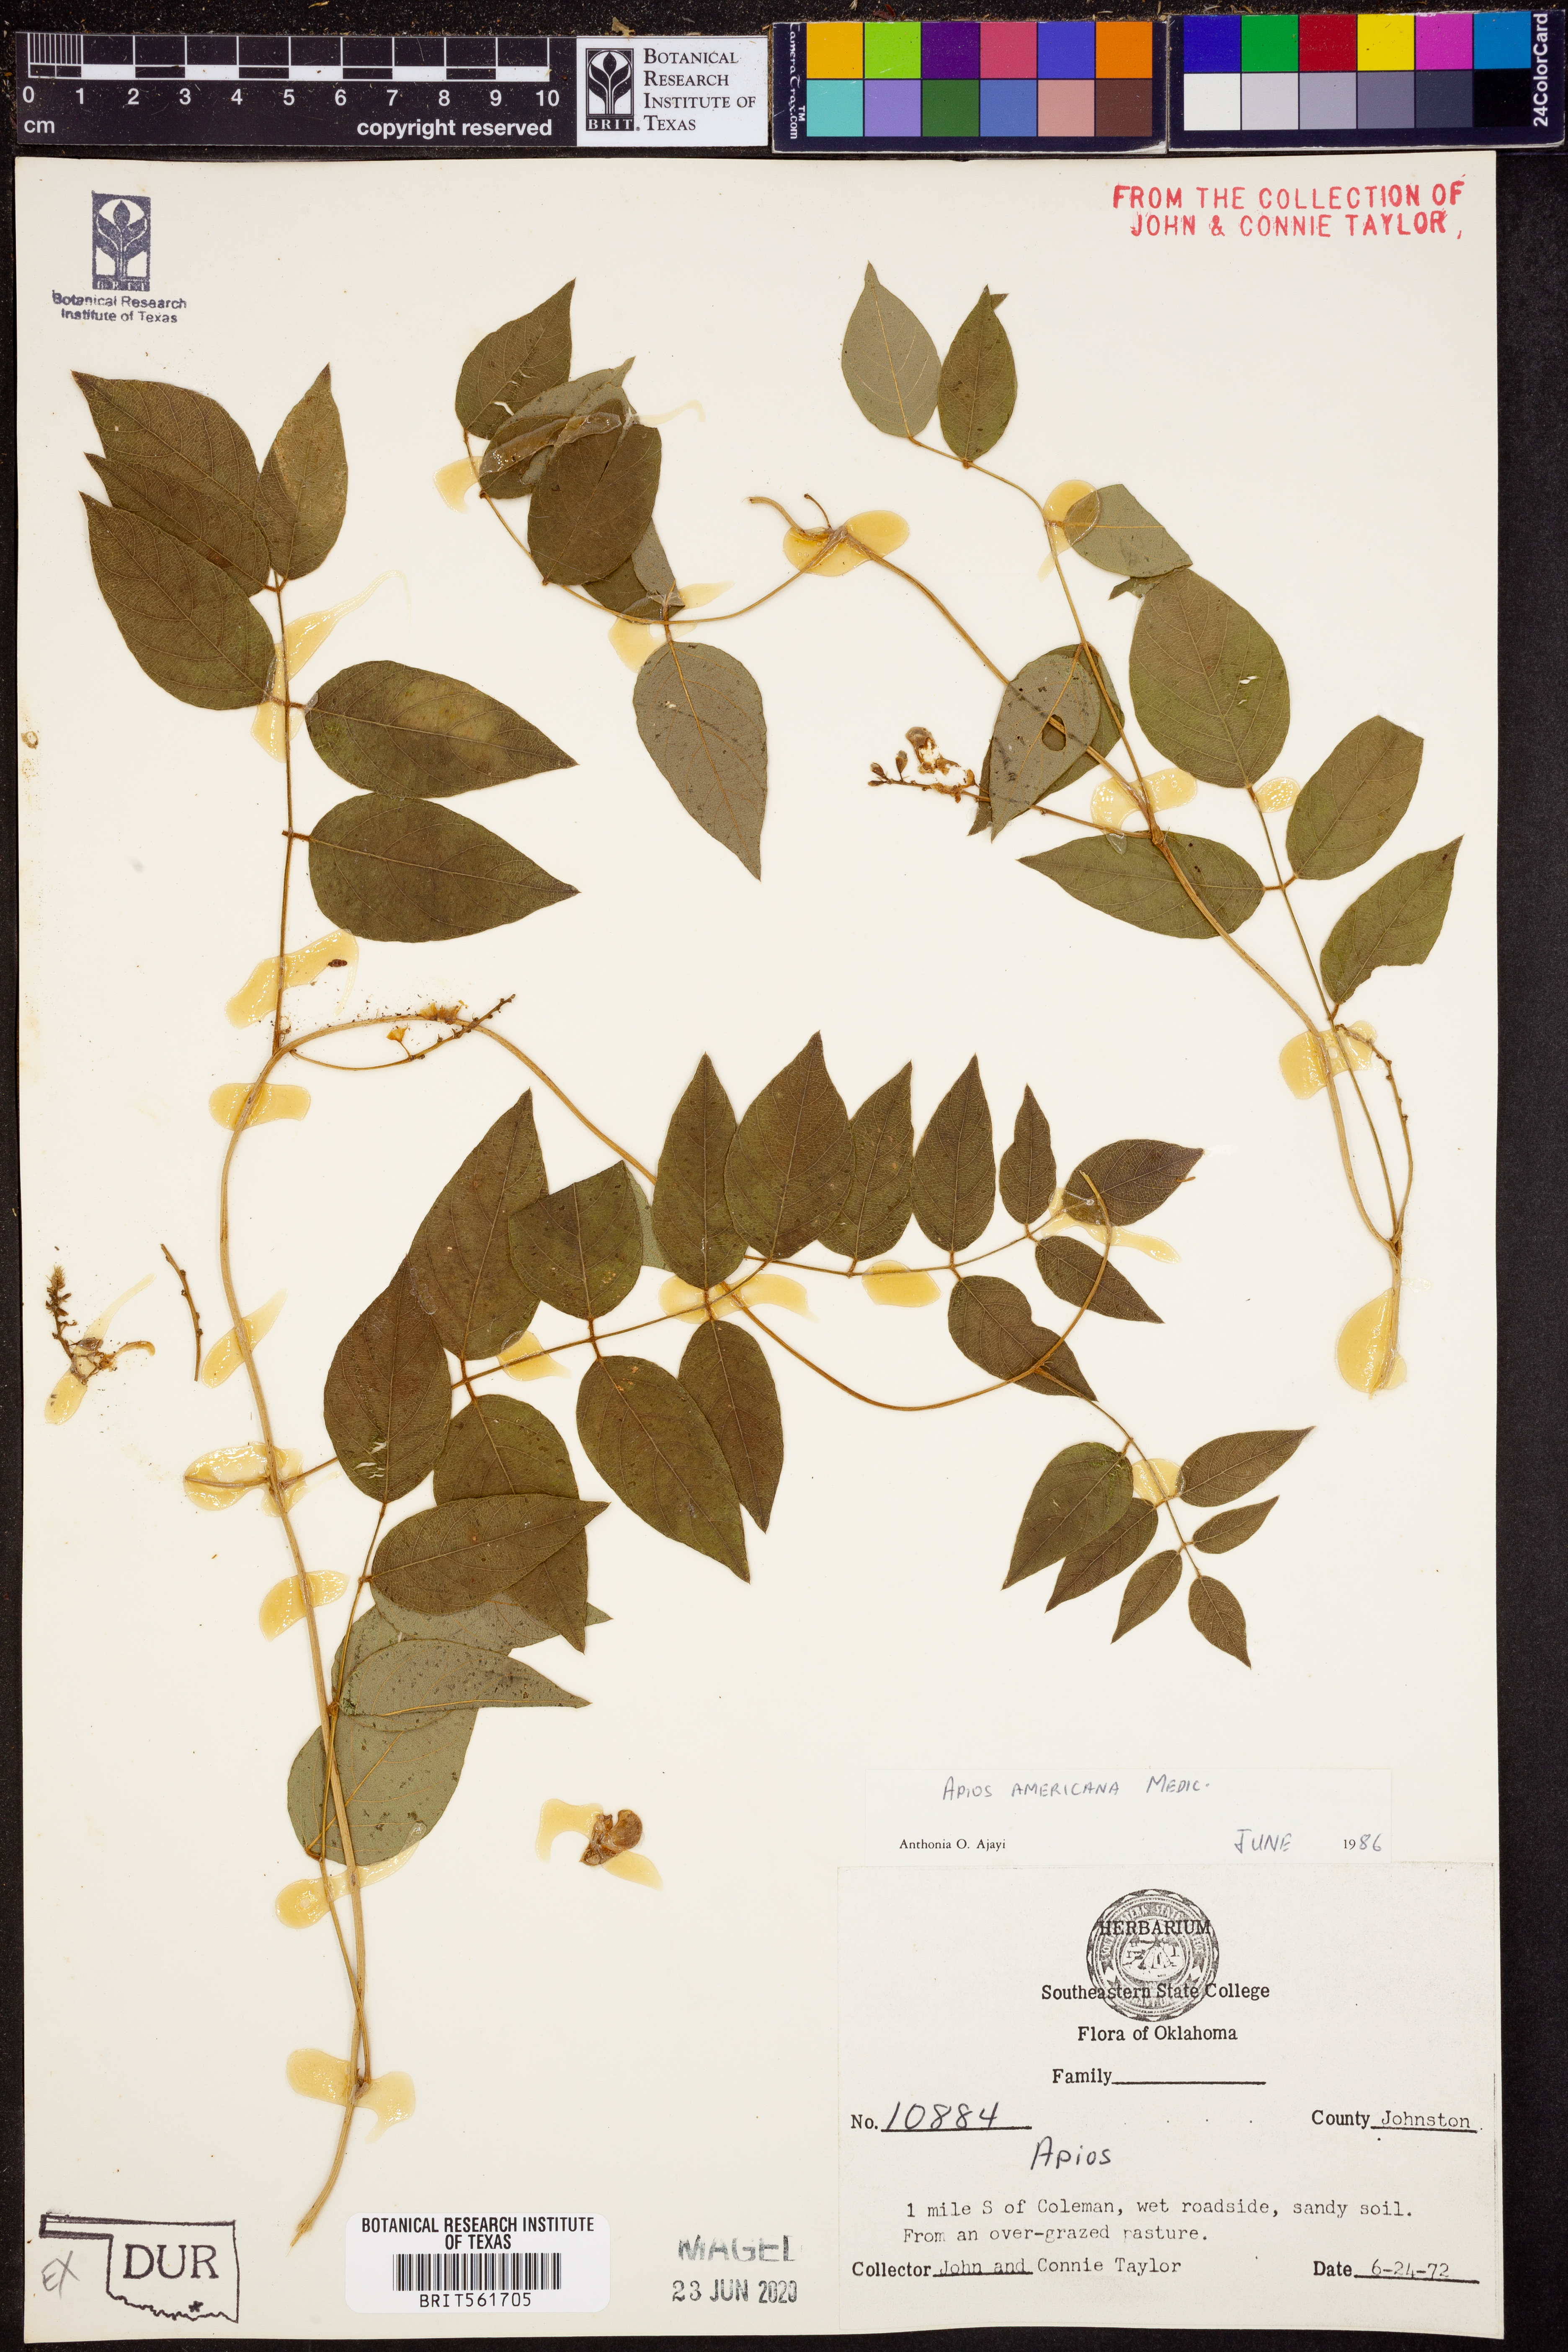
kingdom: Plantae
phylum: Tracheophyta
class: Magnoliopsida
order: Fabales
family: Fabaceae
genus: Apios
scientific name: Apios americana
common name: American potato-bean
